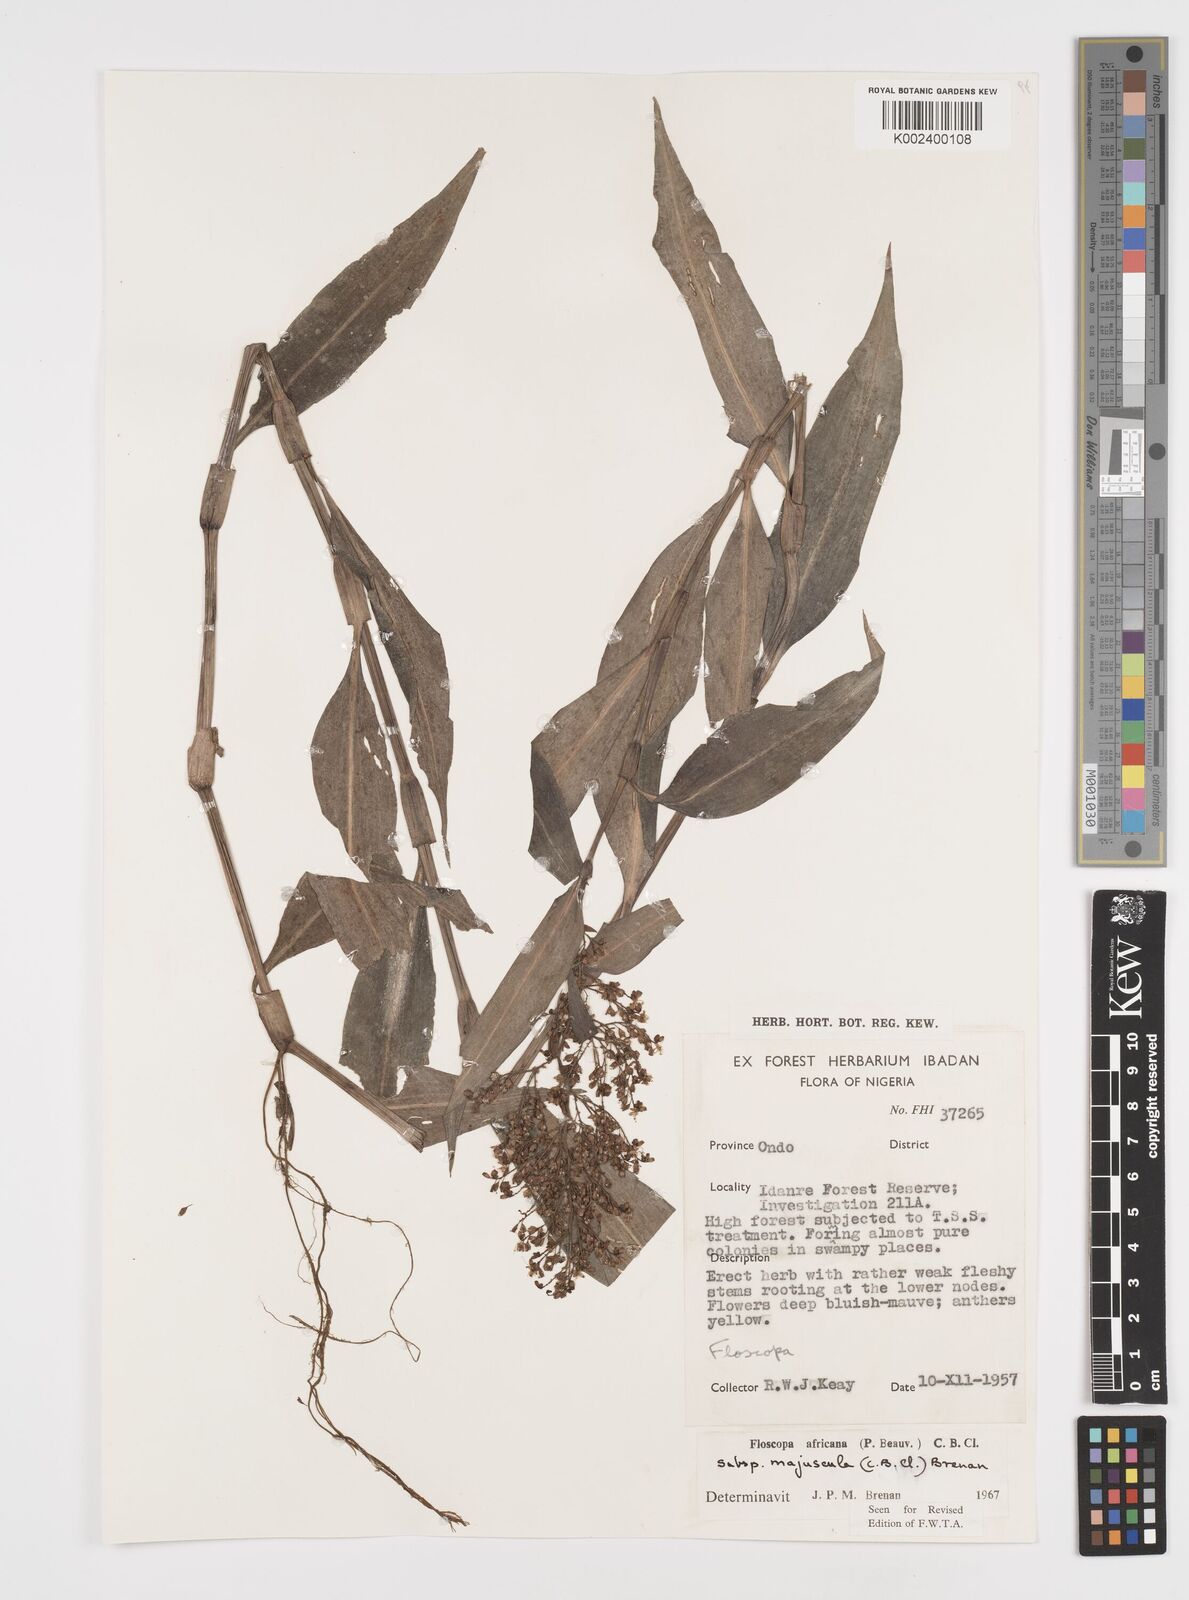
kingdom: Plantae
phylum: Tracheophyta
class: Liliopsida
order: Commelinales
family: Commelinaceae
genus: Floscopa
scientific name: Floscopa africana
